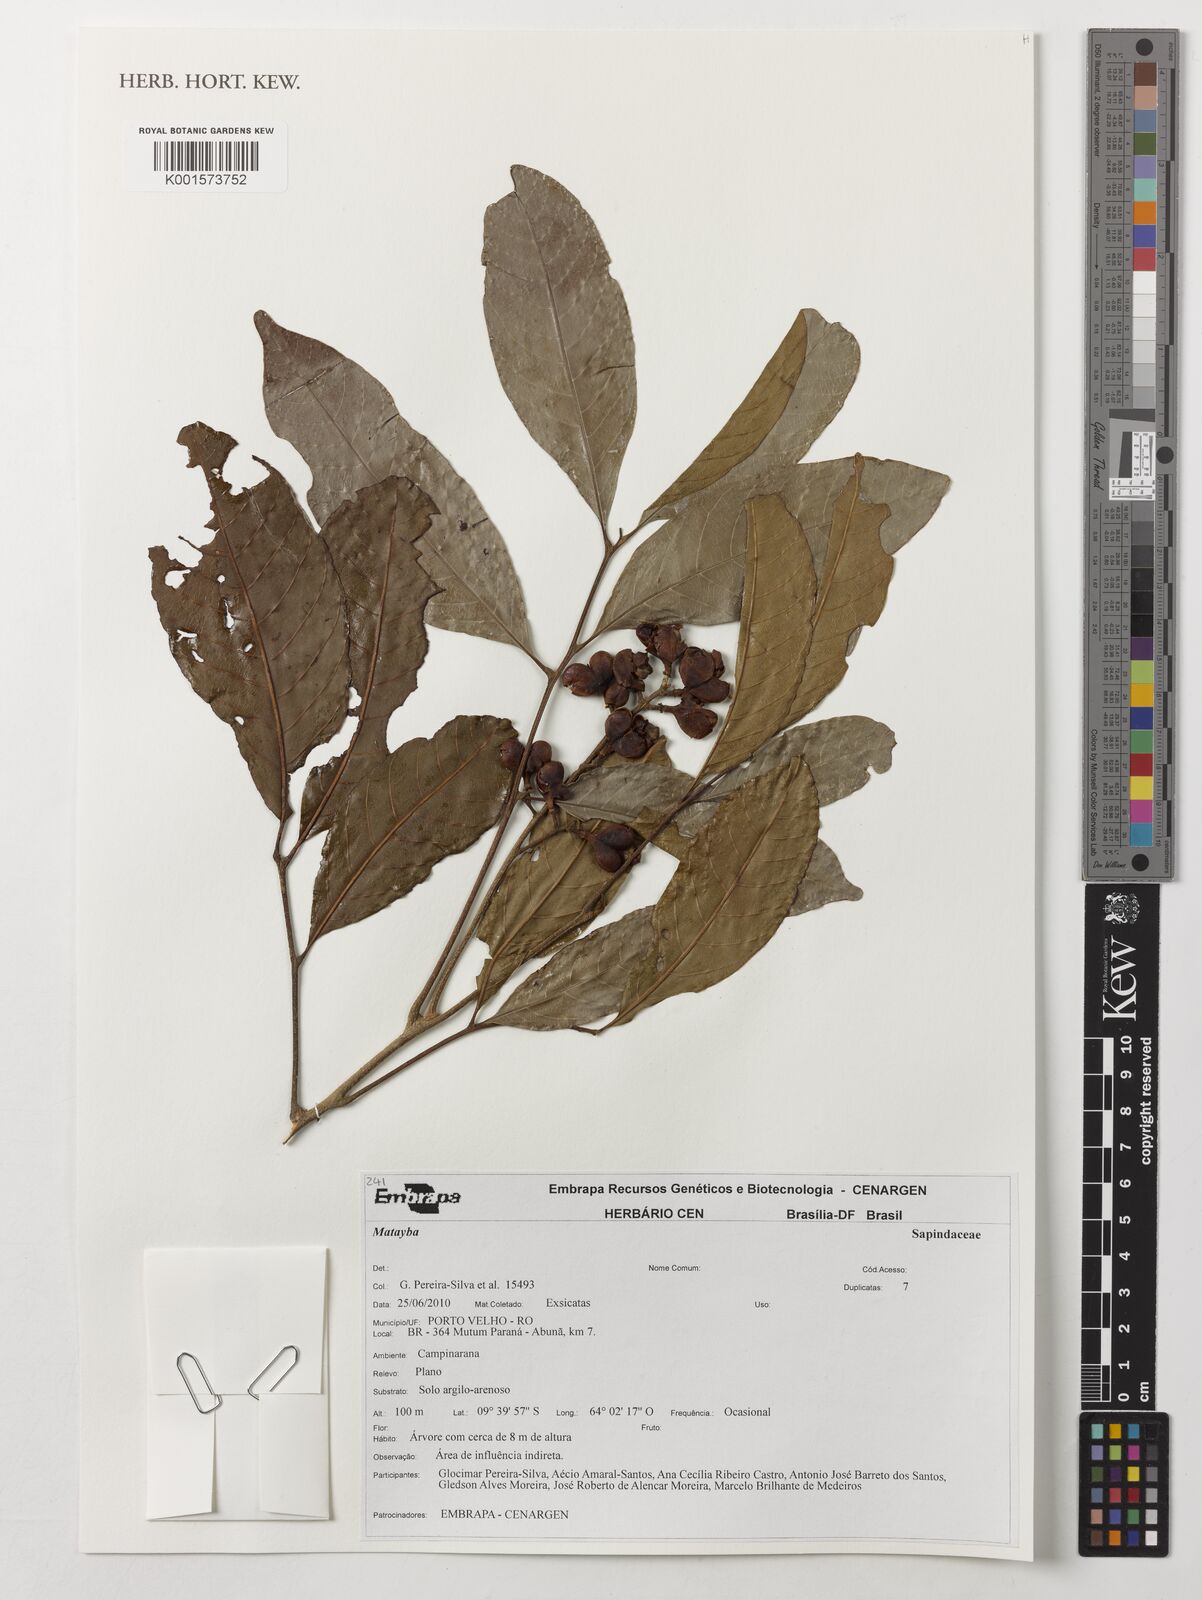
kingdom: Plantae
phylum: Tracheophyta
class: Magnoliopsida
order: Sapindales
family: Sapindaceae
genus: Matayba
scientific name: Matayba
